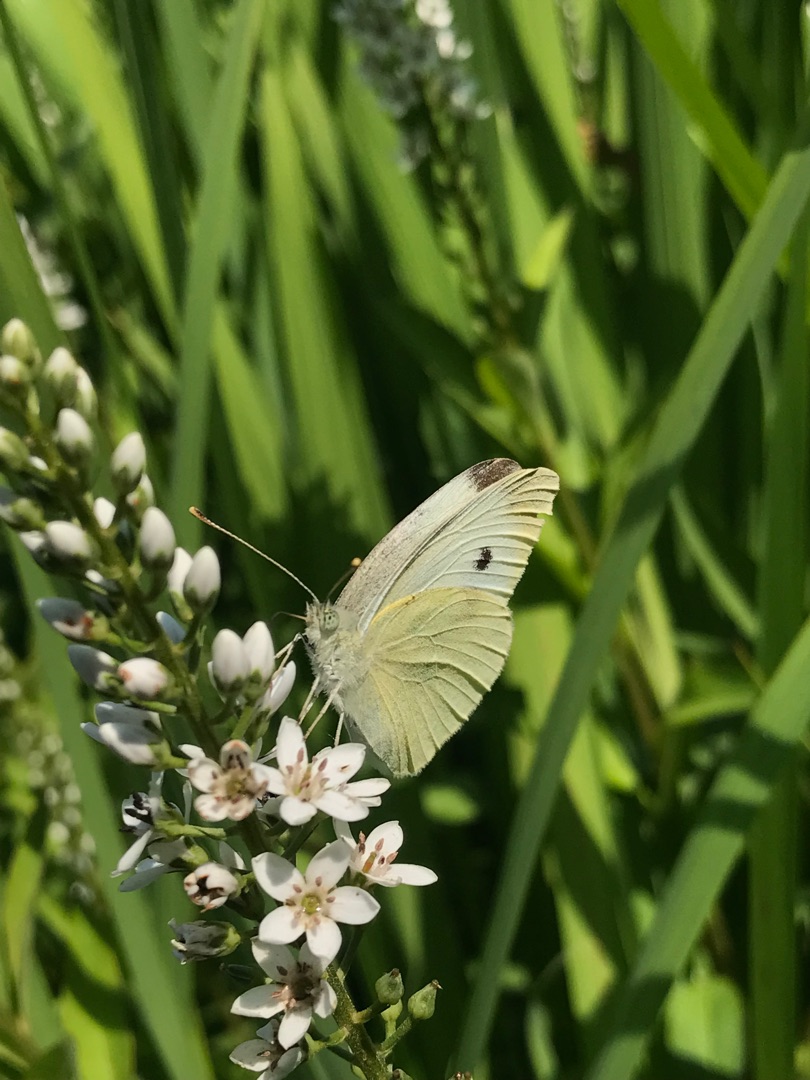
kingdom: Animalia
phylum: Arthropoda
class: Insecta
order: Lepidoptera
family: Pieridae
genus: Pieris
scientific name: Pieris rapae
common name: Lille kålsommerfugl
